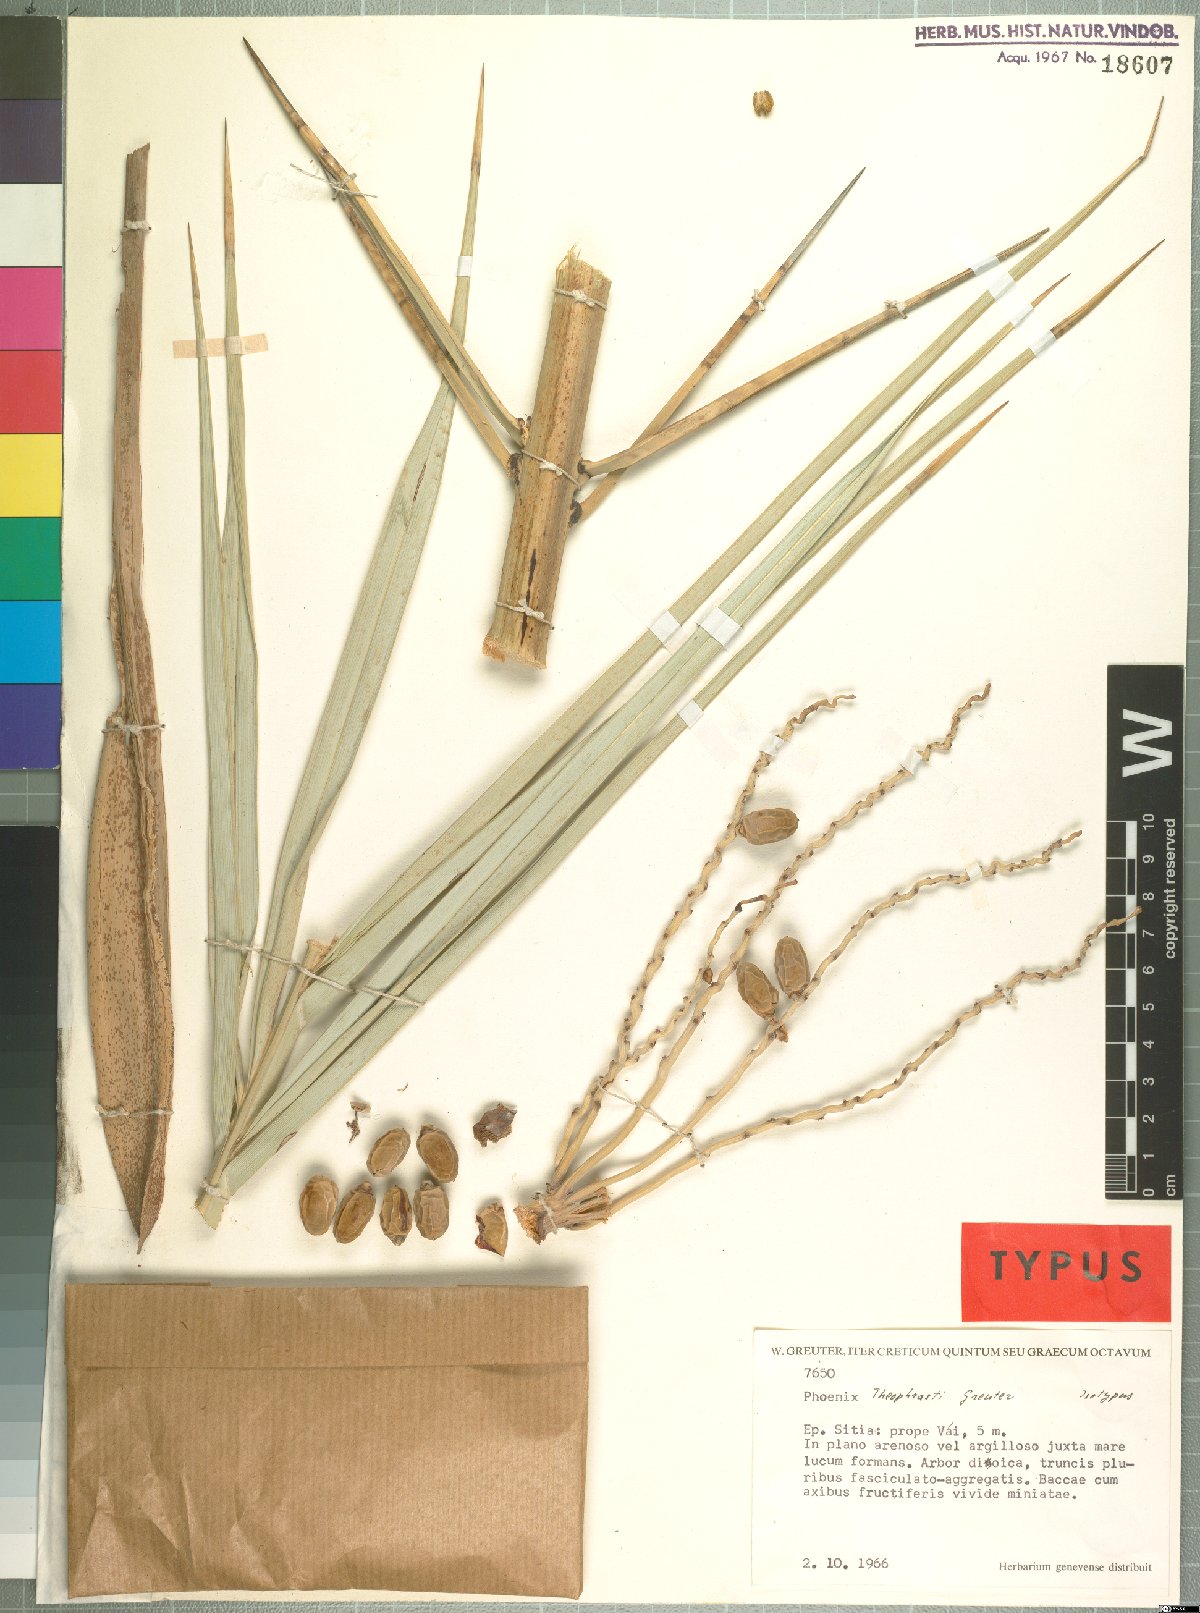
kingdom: Plantae
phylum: Tracheophyta
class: Liliopsida
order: Arecales
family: Arecaceae
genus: Phoenix
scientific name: Phoenix theophrasti
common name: Cretan date palm
